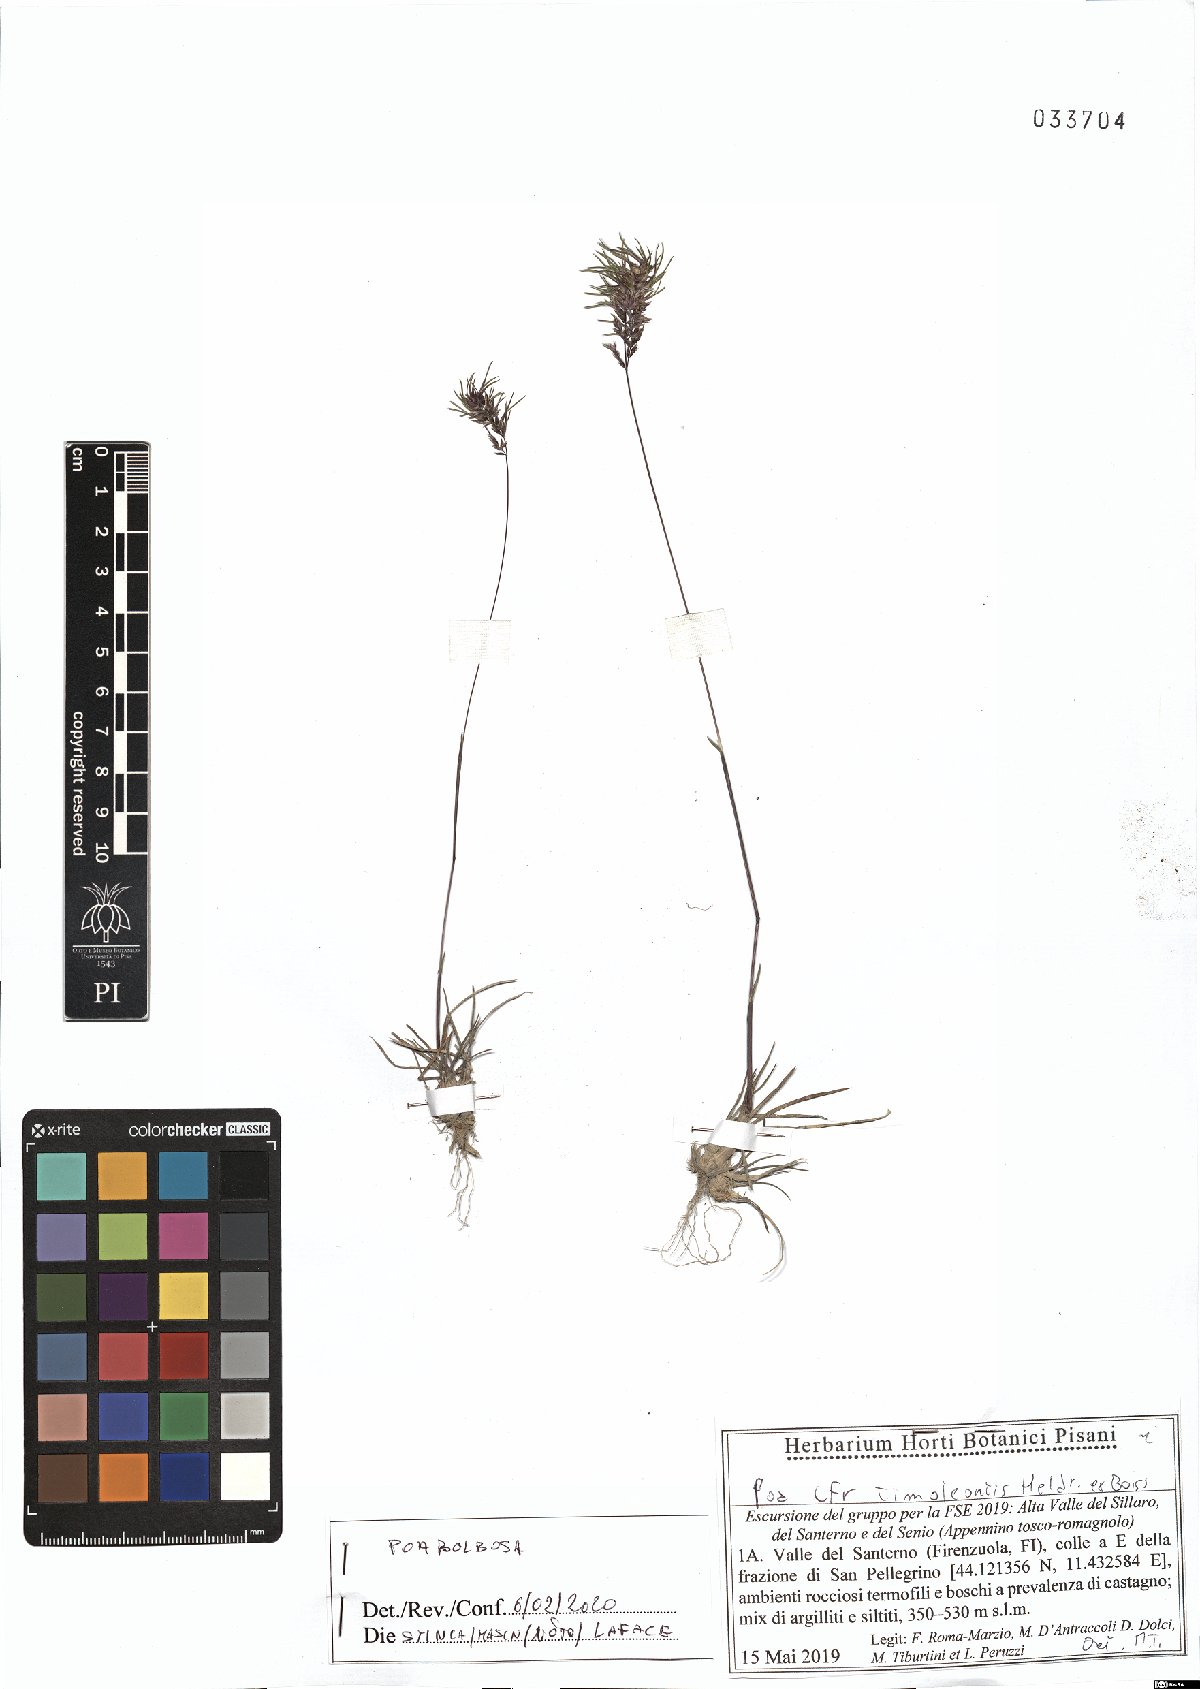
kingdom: Plantae
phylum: Tracheophyta
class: Liliopsida
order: Poales
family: Poaceae
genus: Poa
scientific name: Poa bulbosa
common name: Bulbous bluegrass
